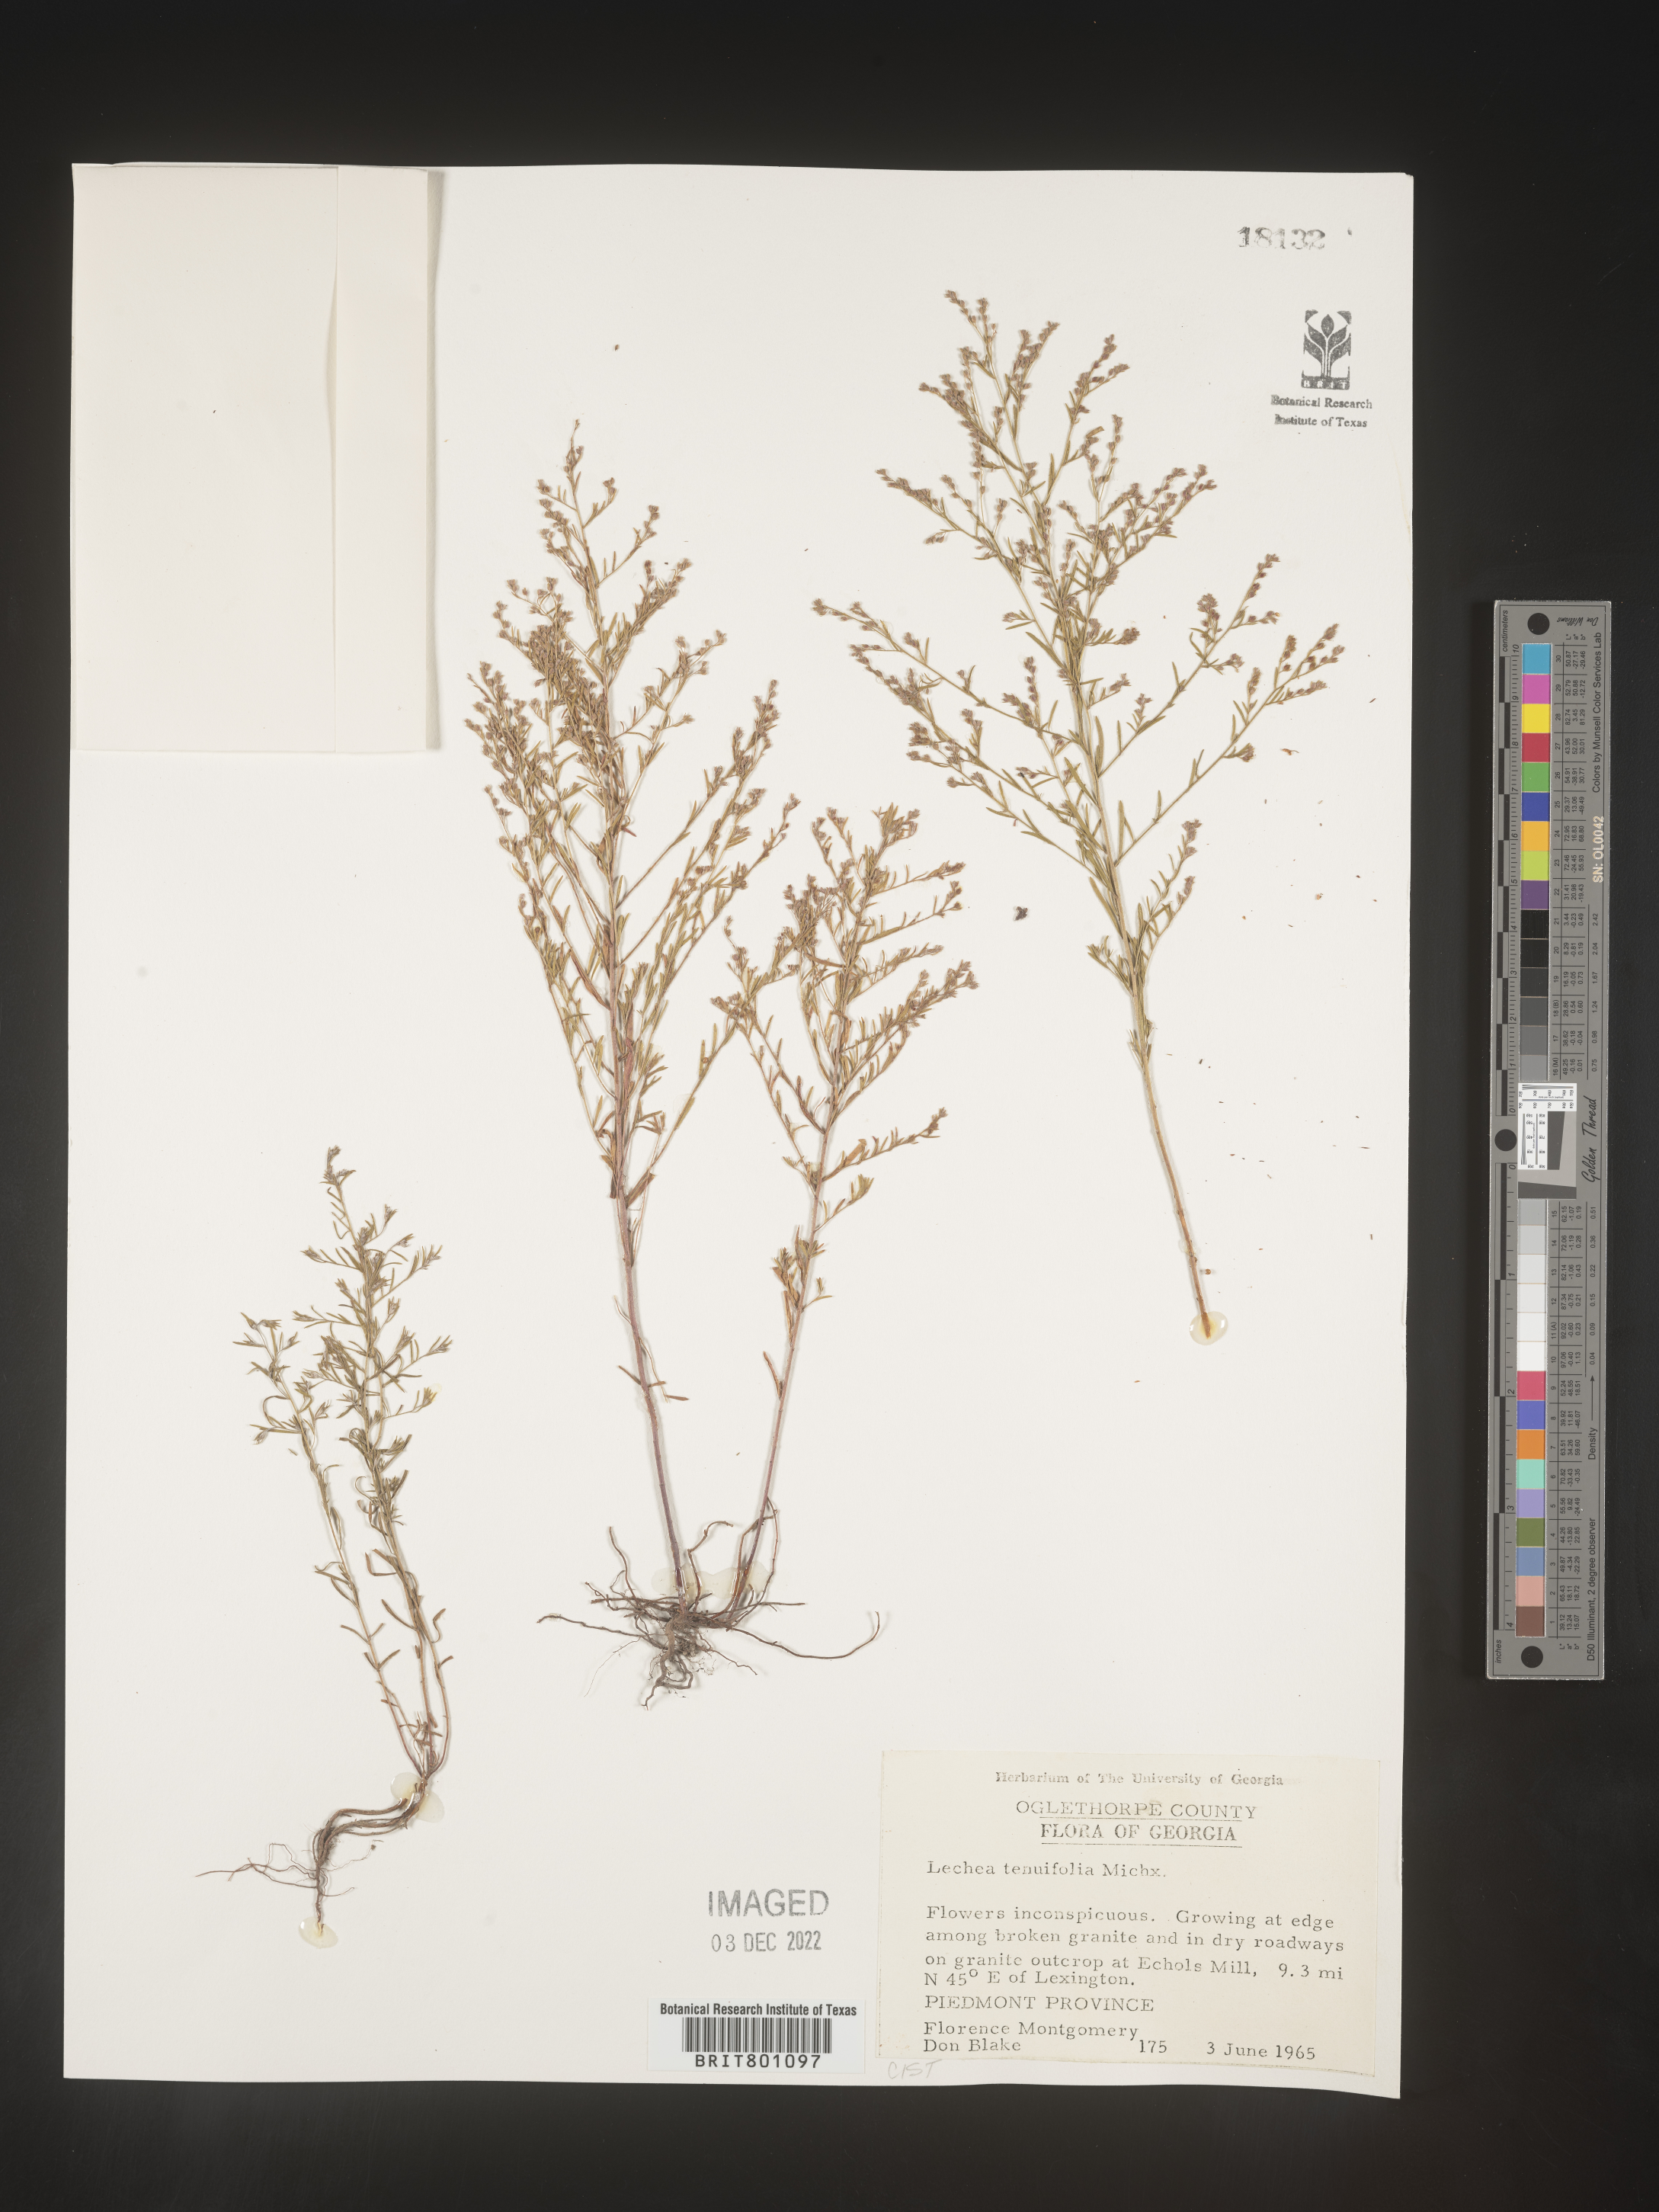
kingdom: Plantae
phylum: Tracheophyta
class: Magnoliopsida
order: Malvales
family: Cistaceae
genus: Lechea
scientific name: Lechea tenuifolia
